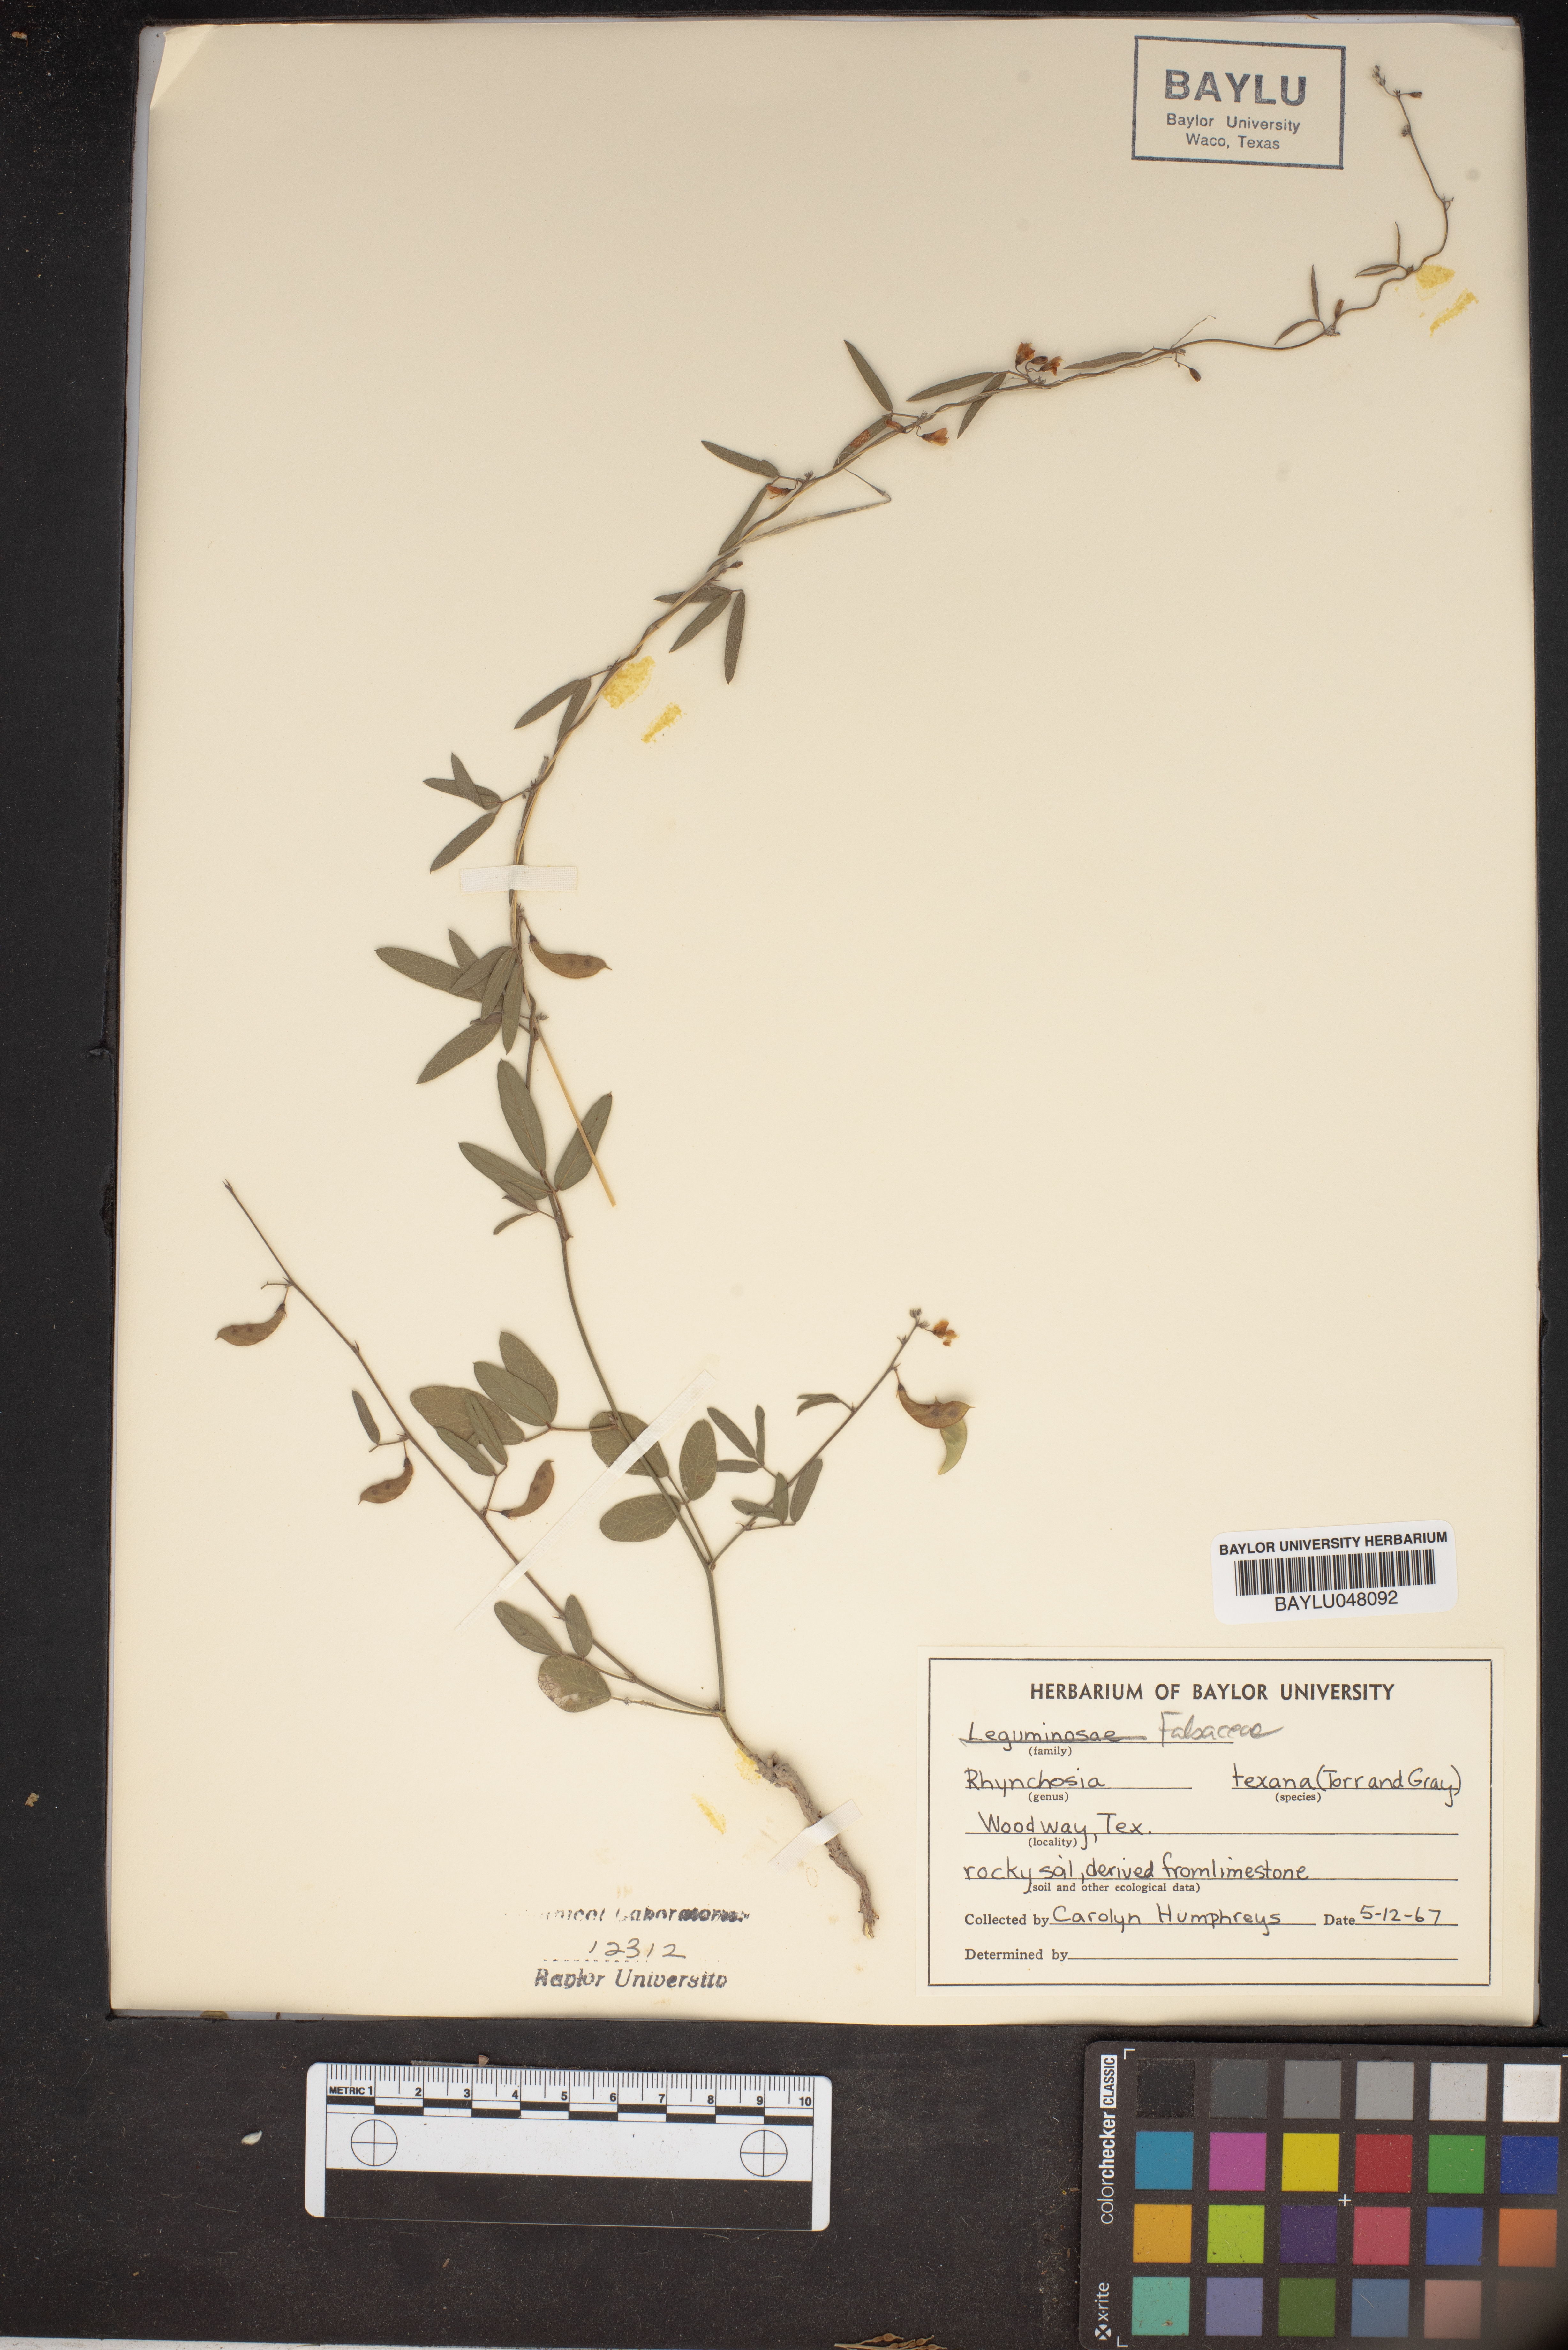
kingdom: Plantae
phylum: Tracheophyta
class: Magnoliopsida
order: Fabales
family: Fabaceae
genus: Rhynchosia
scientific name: Rhynchosia senna
